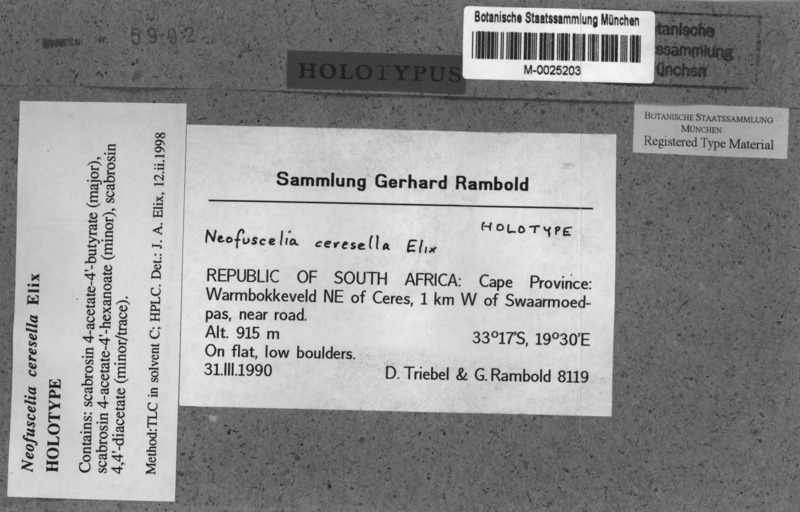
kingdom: Fungi
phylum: Ascomycota
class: Lecanoromycetes
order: Lecanorales
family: Parmeliaceae
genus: Xanthoparmelia
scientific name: Xanthoparmelia ceresella
